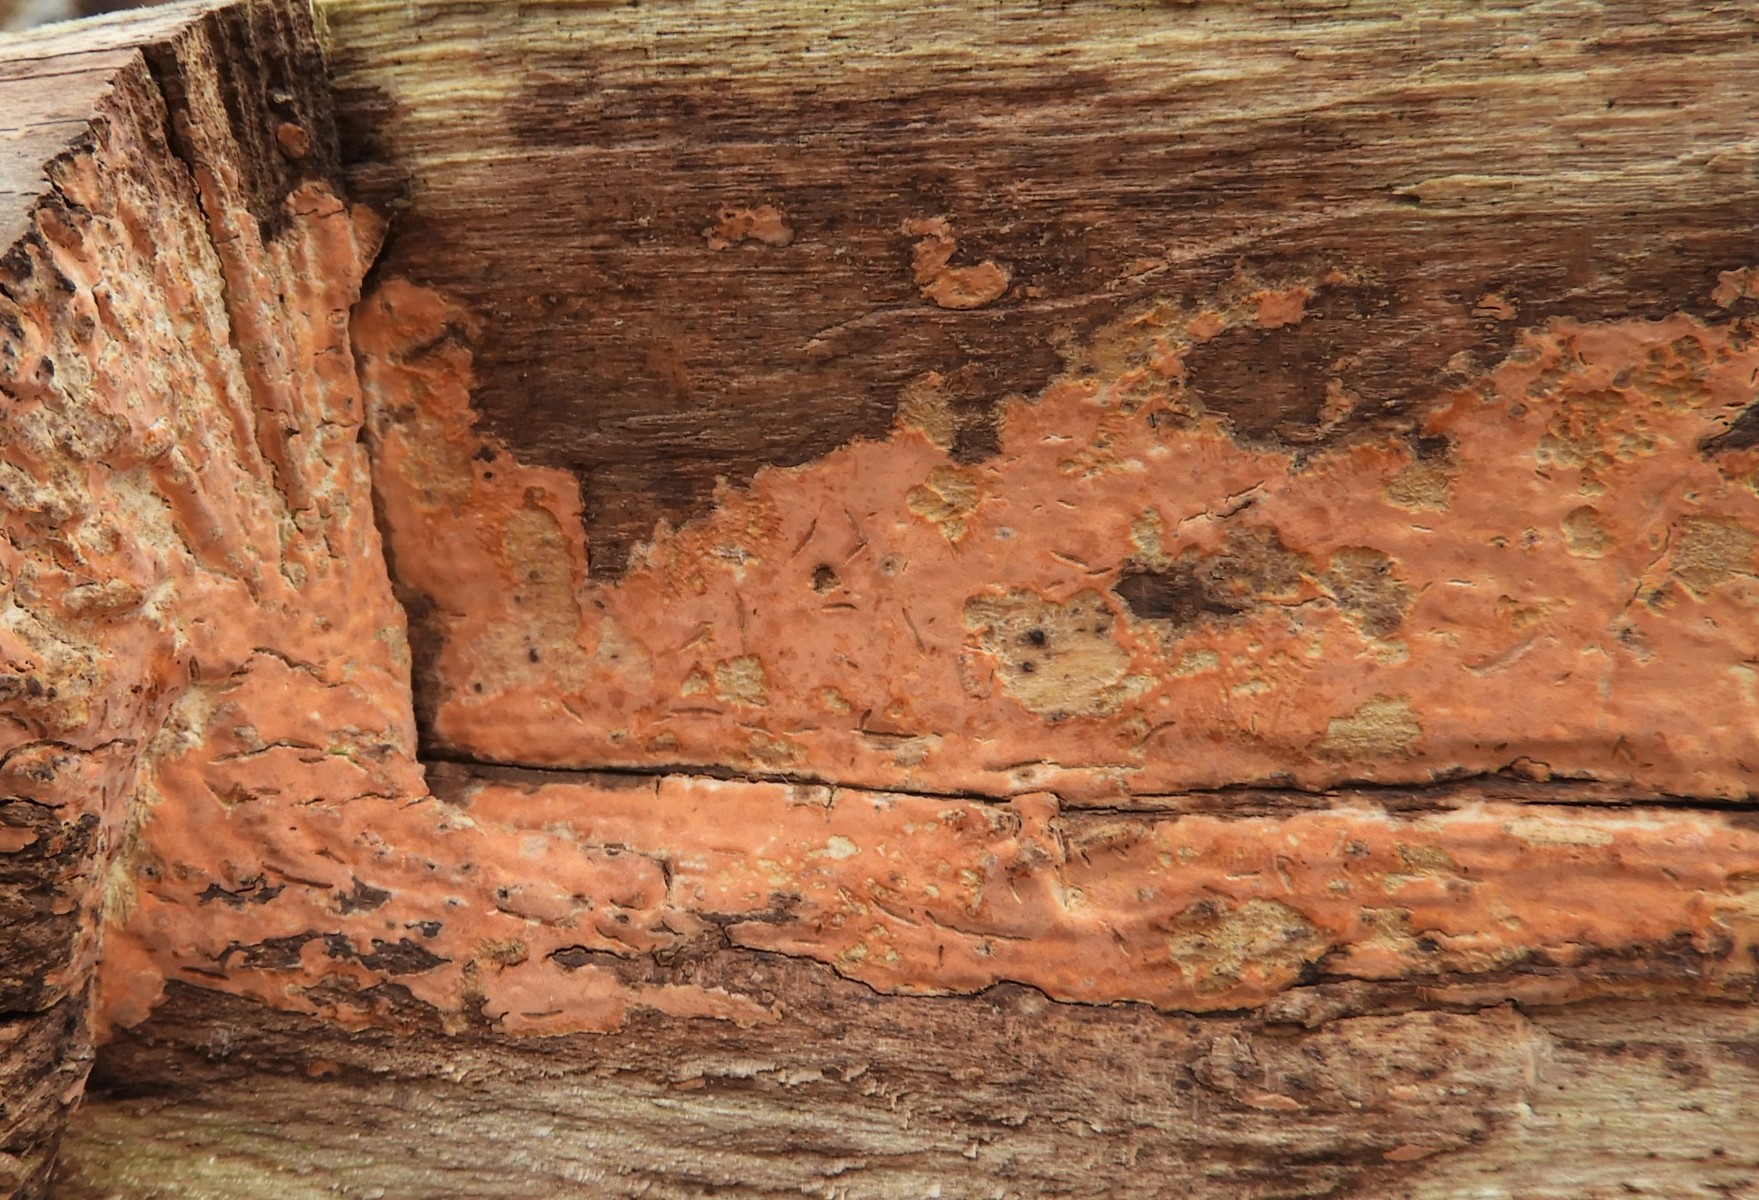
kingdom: Fungi
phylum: Basidiomycota
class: Agaricomycetes
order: Russulales
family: Peniophoraceae
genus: Peniophora
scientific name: Peniophora incarnata
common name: laksefarvet voksskind
